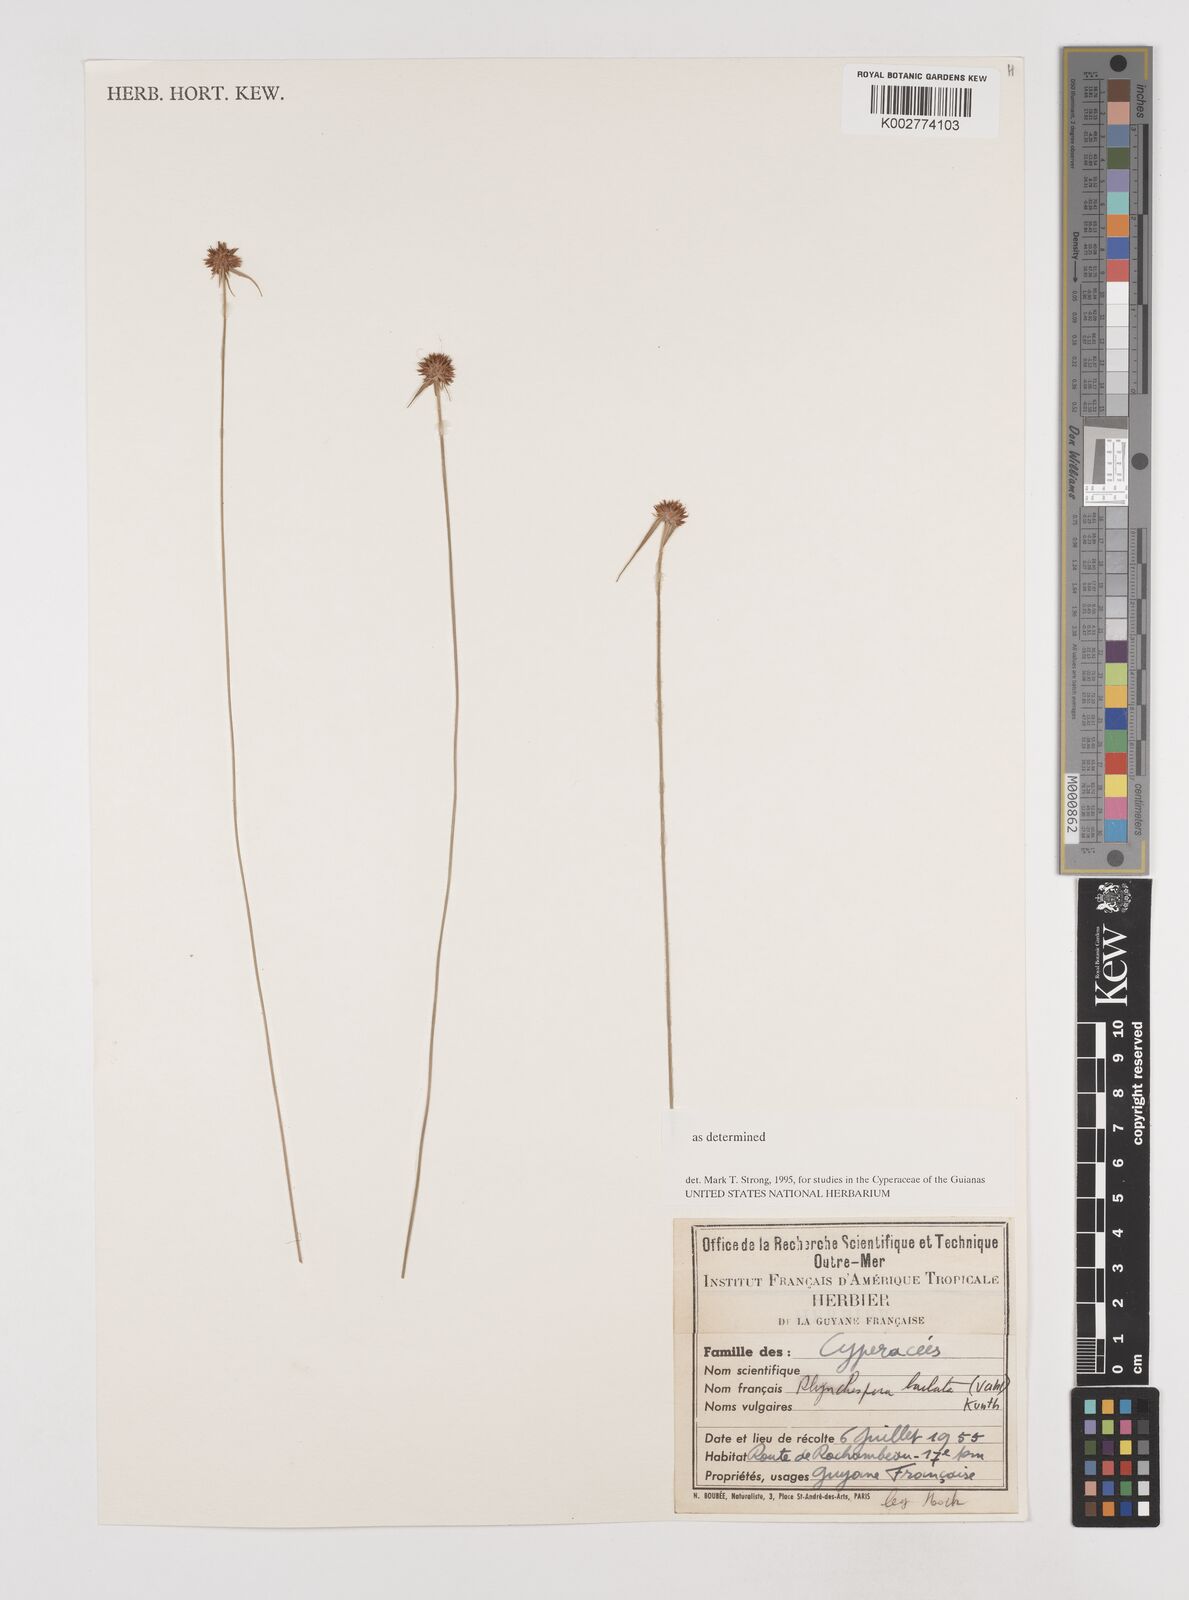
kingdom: Plantae
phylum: Tracheophyta
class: Liliopsida
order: Poales
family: Cyperaceae
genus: Rhynchospora
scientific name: Rhynchospora barbata
